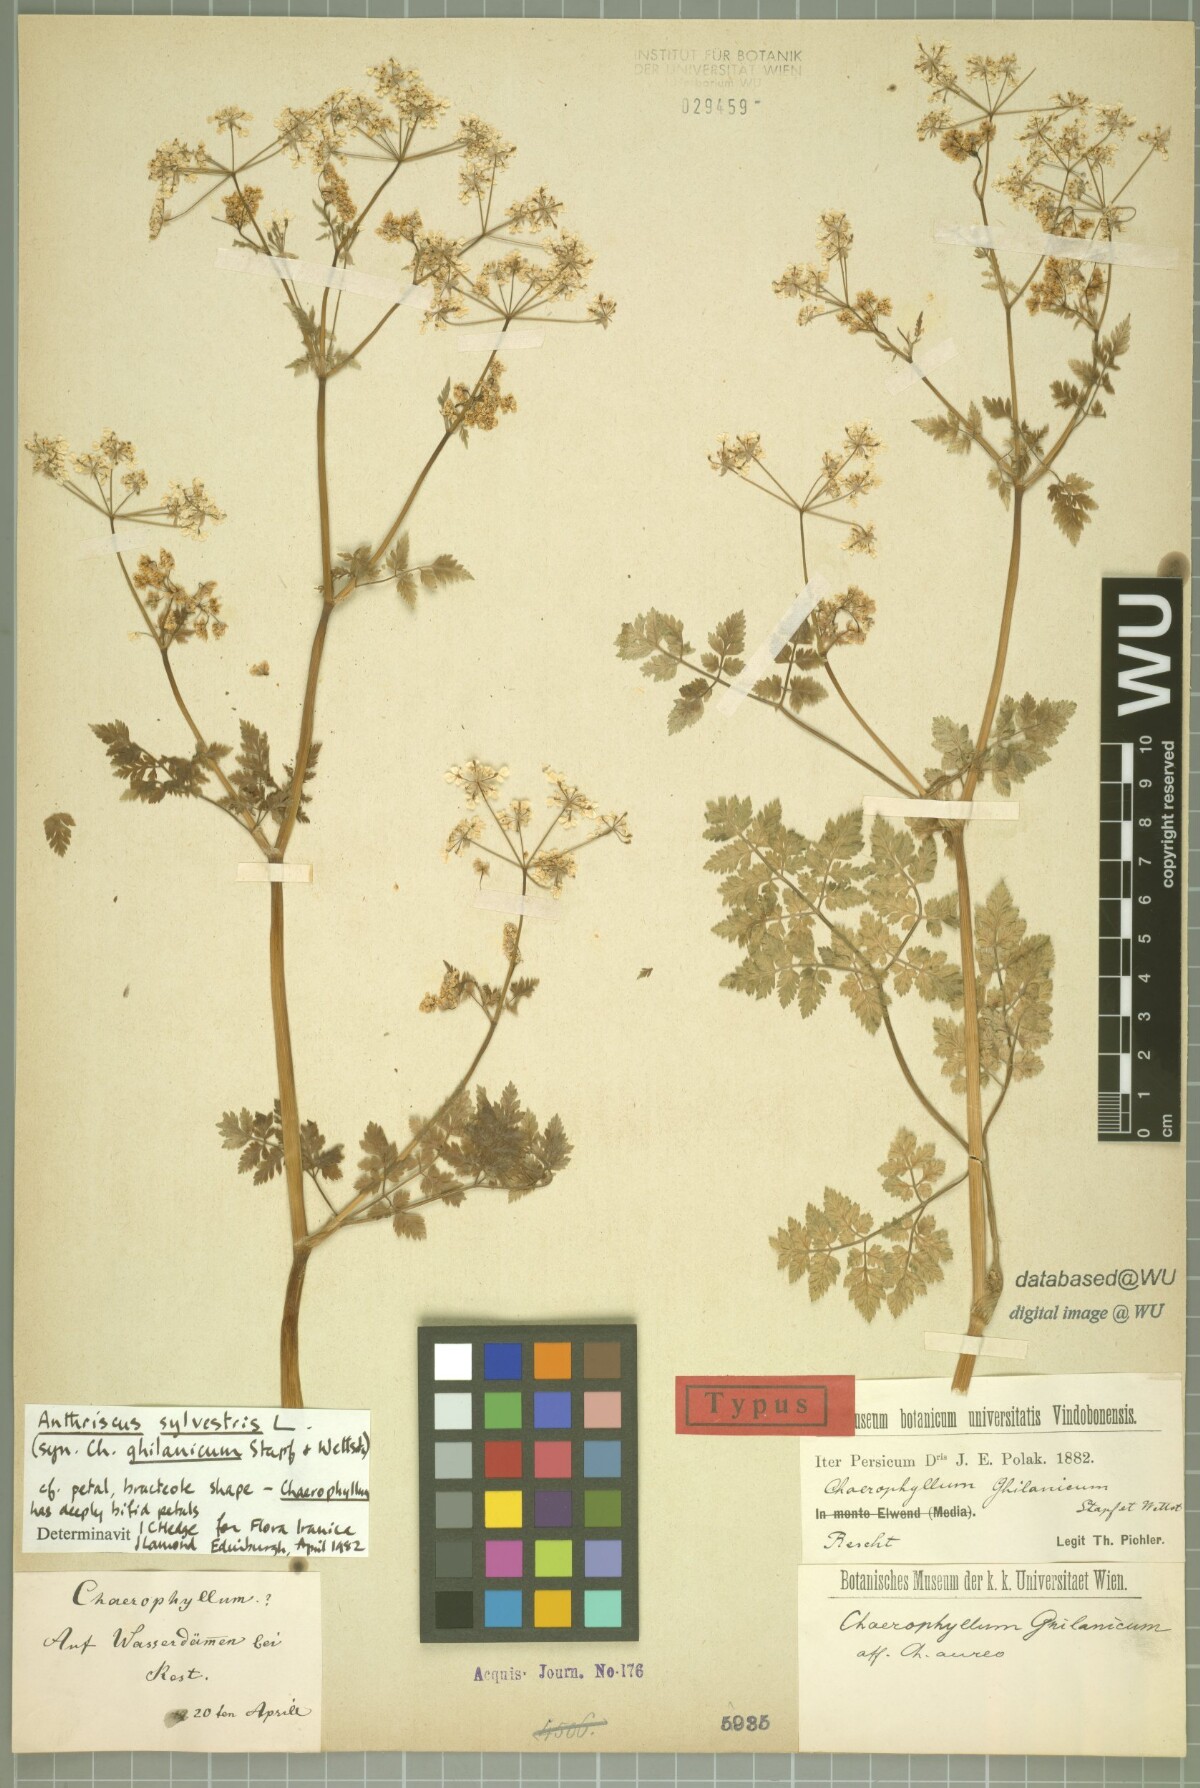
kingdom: Plantae
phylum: Tracheophyta
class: Magnoliopsida
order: Apiales
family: Apiaceae
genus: Anthriscus
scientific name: Anthriscus sylvestris
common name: Cow parsley
